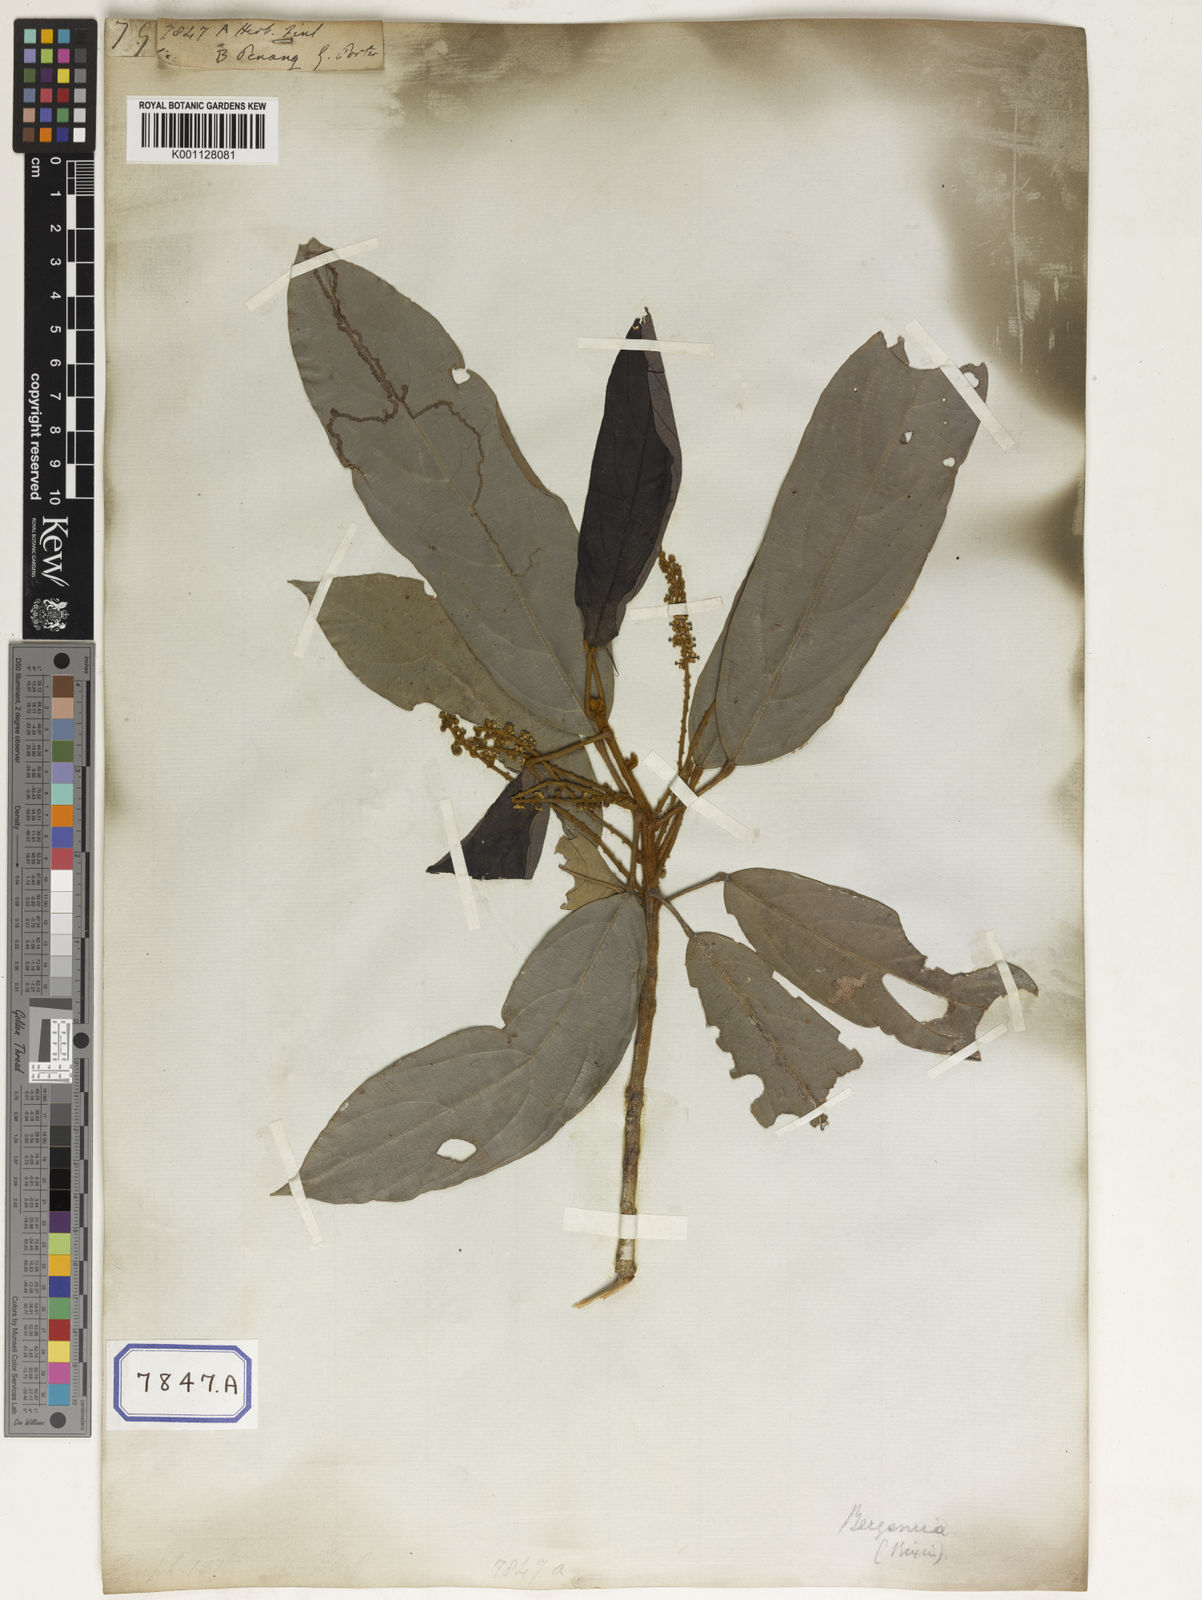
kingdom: Plantae
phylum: Tracheophyta
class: Magnoliopsida
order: Malpighiales
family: Euphorbiaceae
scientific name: Euphorbiaceae
